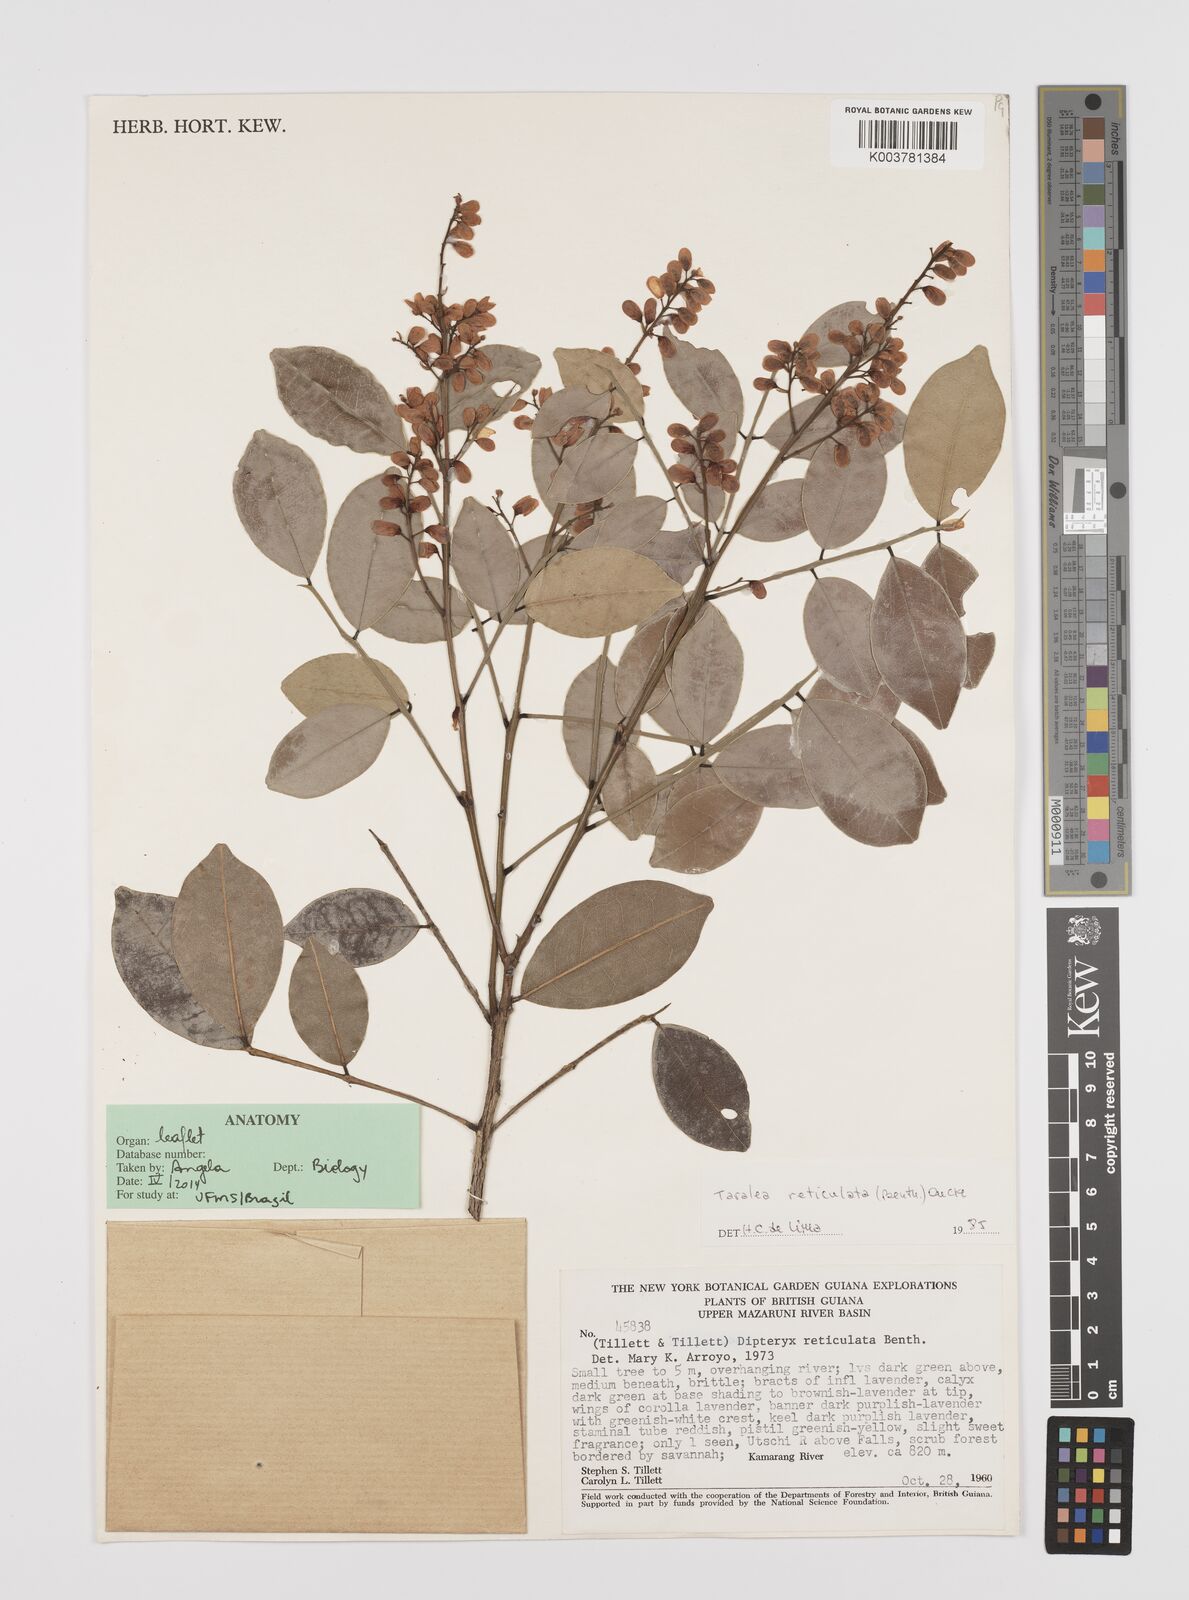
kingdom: Plantae
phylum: Tracheophyta
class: Magnoliopsida
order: Fabales
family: Fabaceae
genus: Taralea
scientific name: Taralea reticulata
